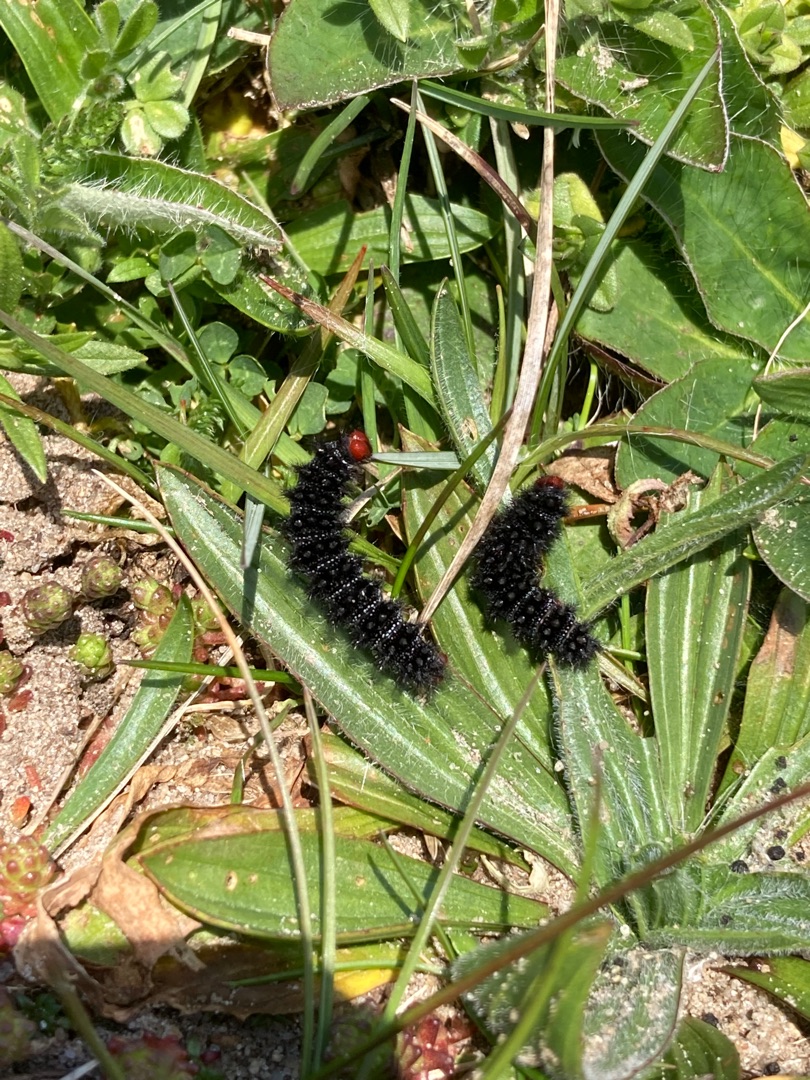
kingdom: Animalia
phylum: Arthropoda
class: Insecta
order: Lepidoptera
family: Nymphalidae
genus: Melitaea
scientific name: Melitaea cinxia
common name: Okkergul pletvinge
